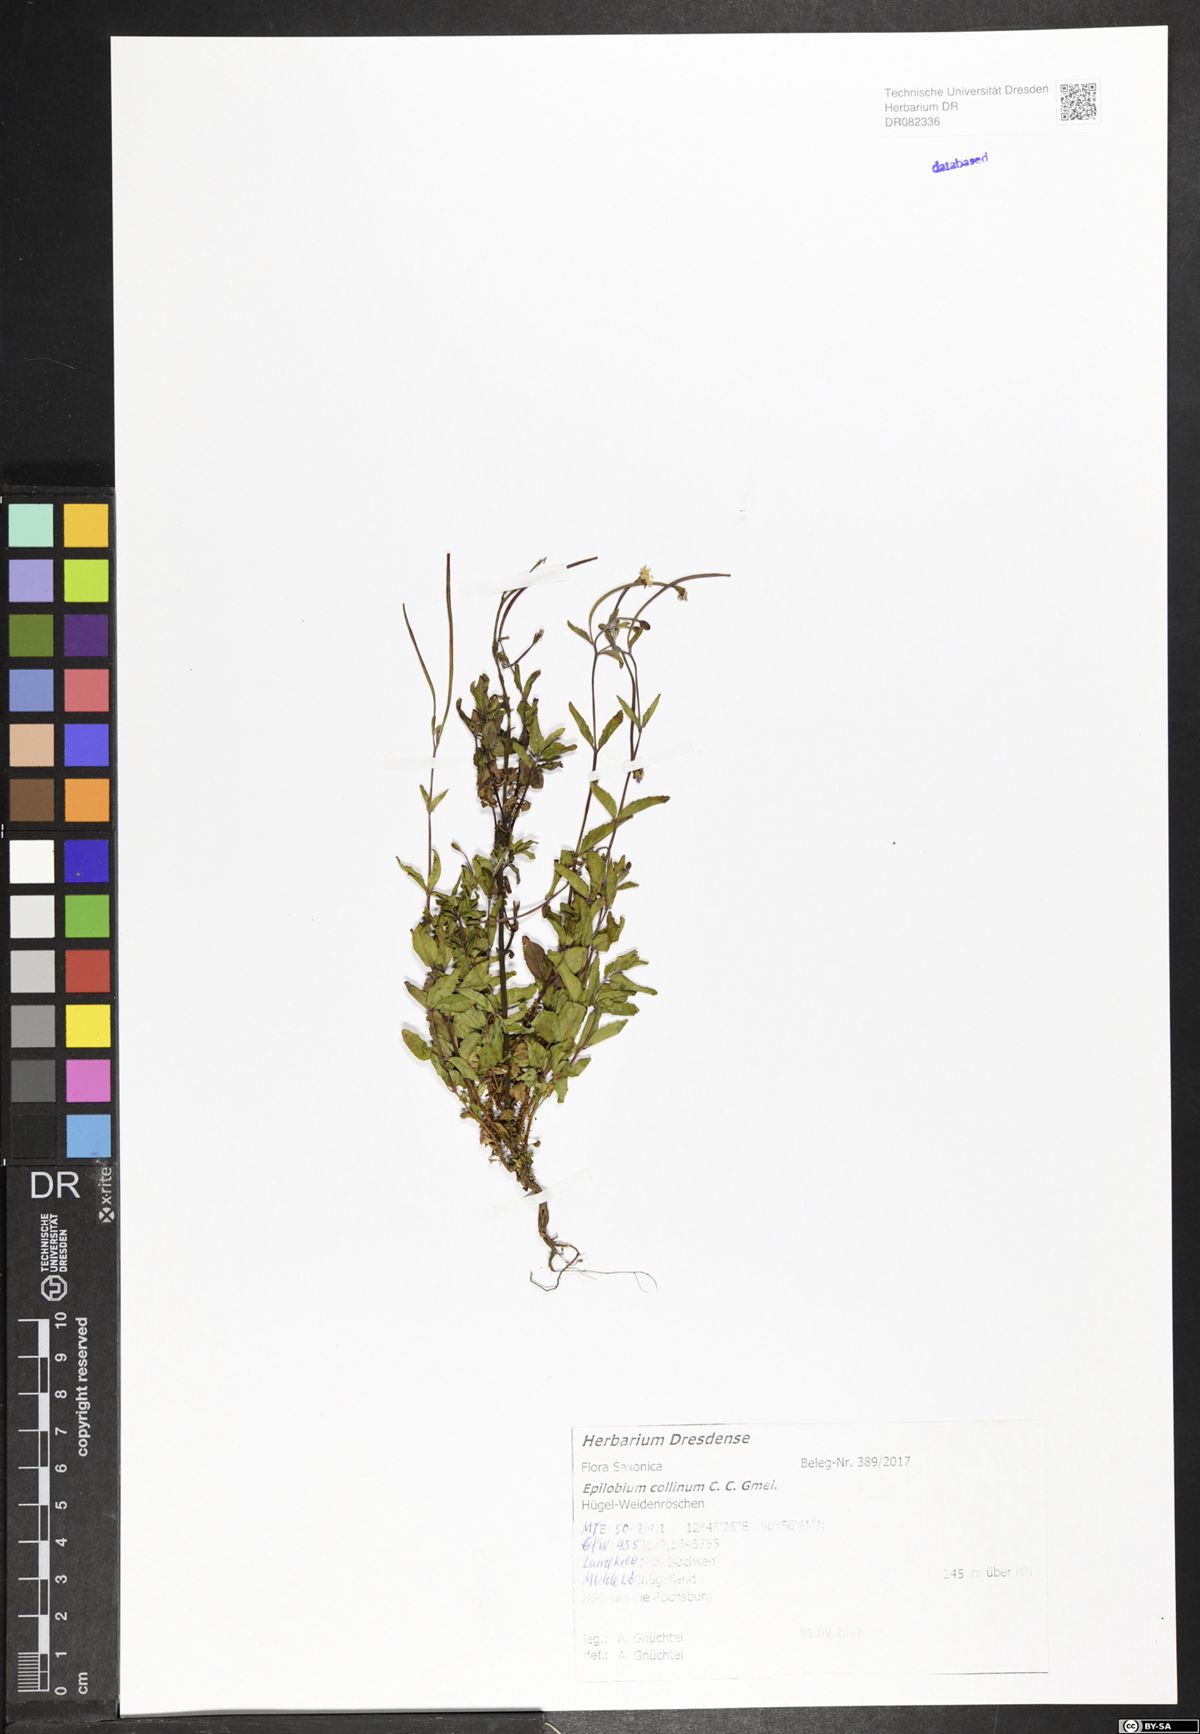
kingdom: Plantae
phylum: Tracheophyta
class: Magnoliopsida
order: Myrtales
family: Onagraceae
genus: Epilobium
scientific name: Epilobium collinum
